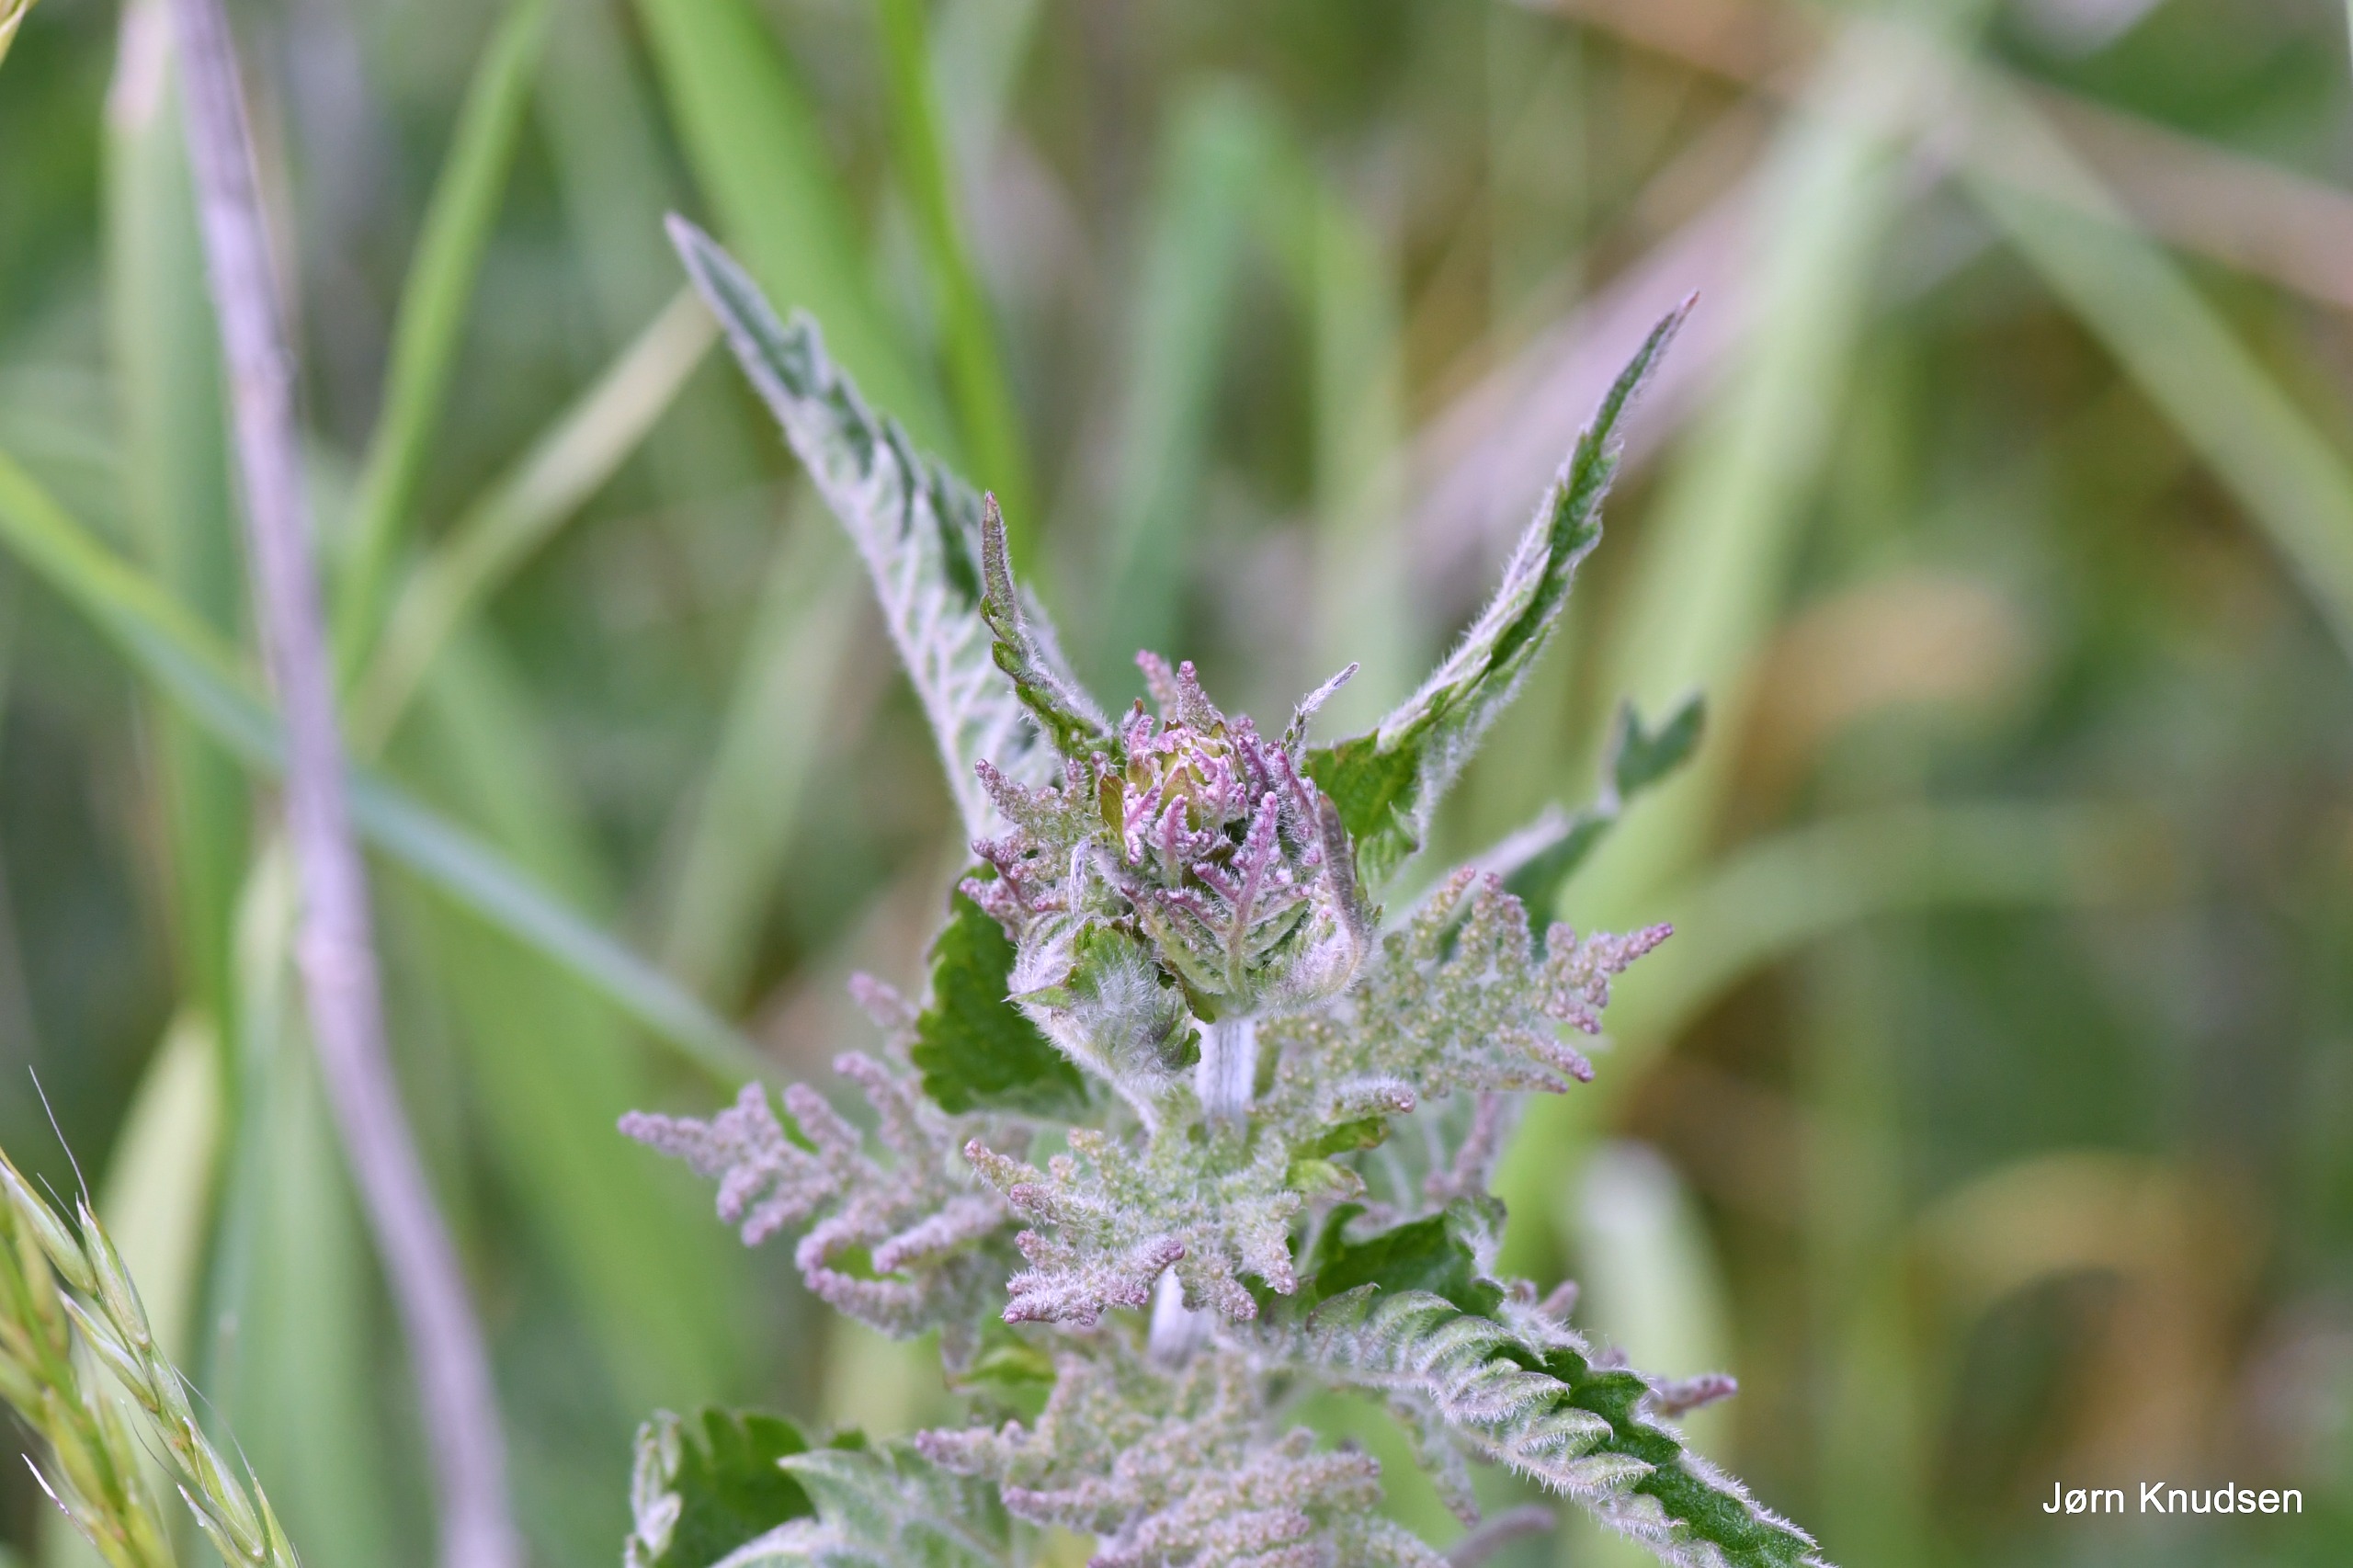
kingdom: Plantae
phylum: Tracheophyta
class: Magnoliopsida
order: Rosales
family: Urticaceae
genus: Urtica
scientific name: Urtica dioica
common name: Stor nælde
